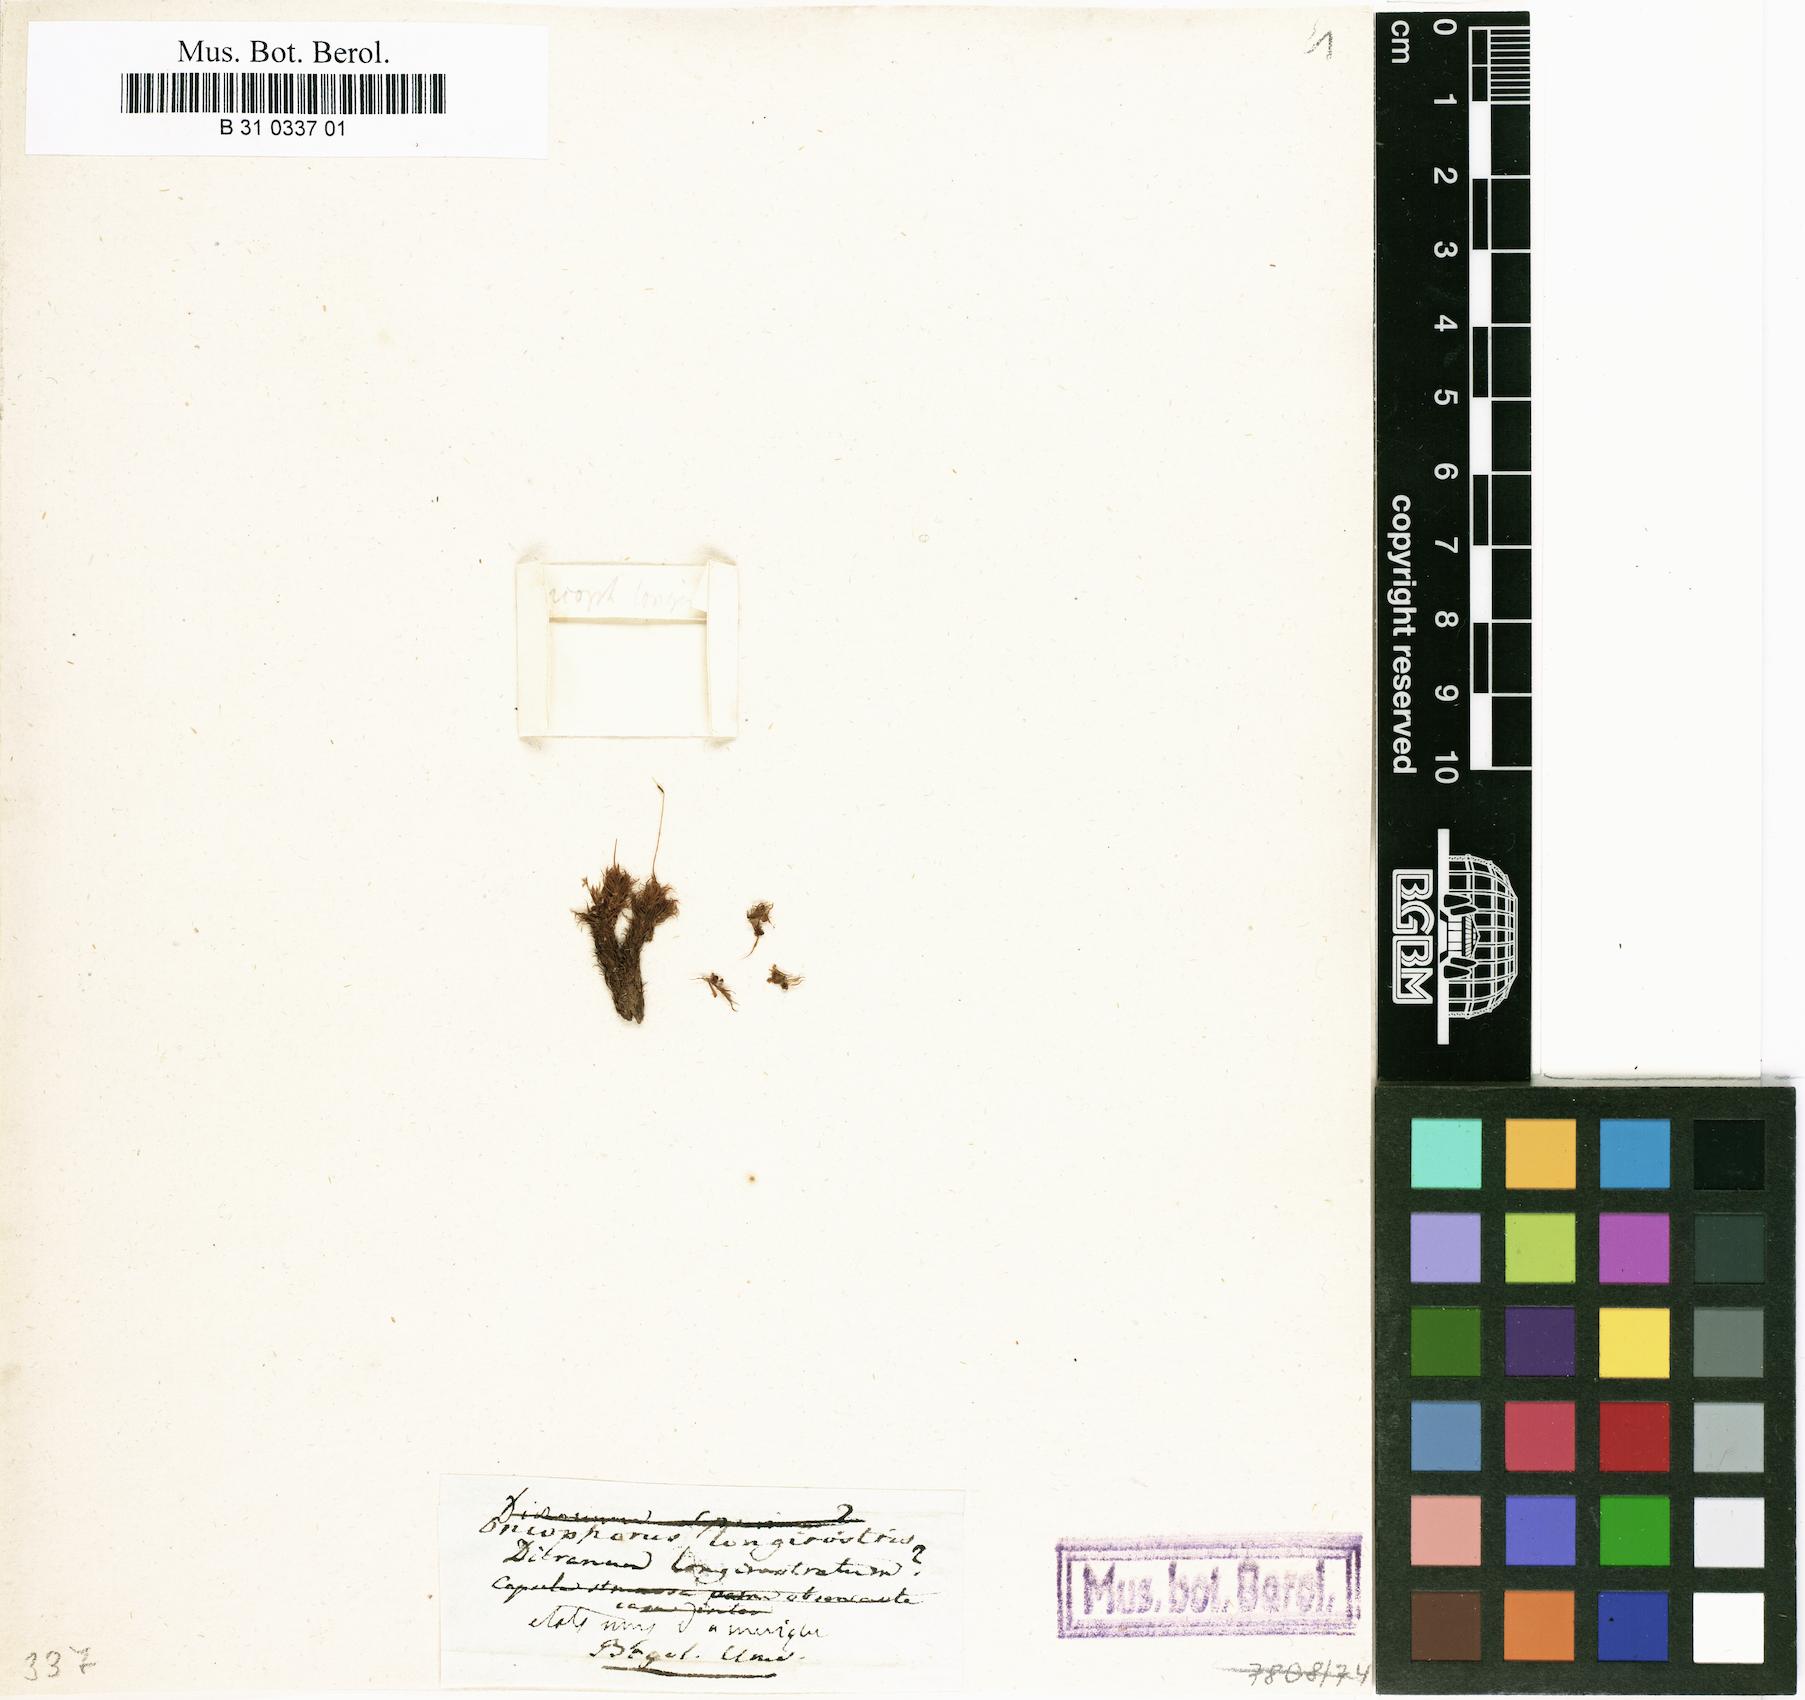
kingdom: Plantae
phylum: Bryophyta
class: Bryopsida
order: Dicranales
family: Dicranaceae
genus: Dicranum
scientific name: Dicranum spurium
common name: Spurred broom moss
